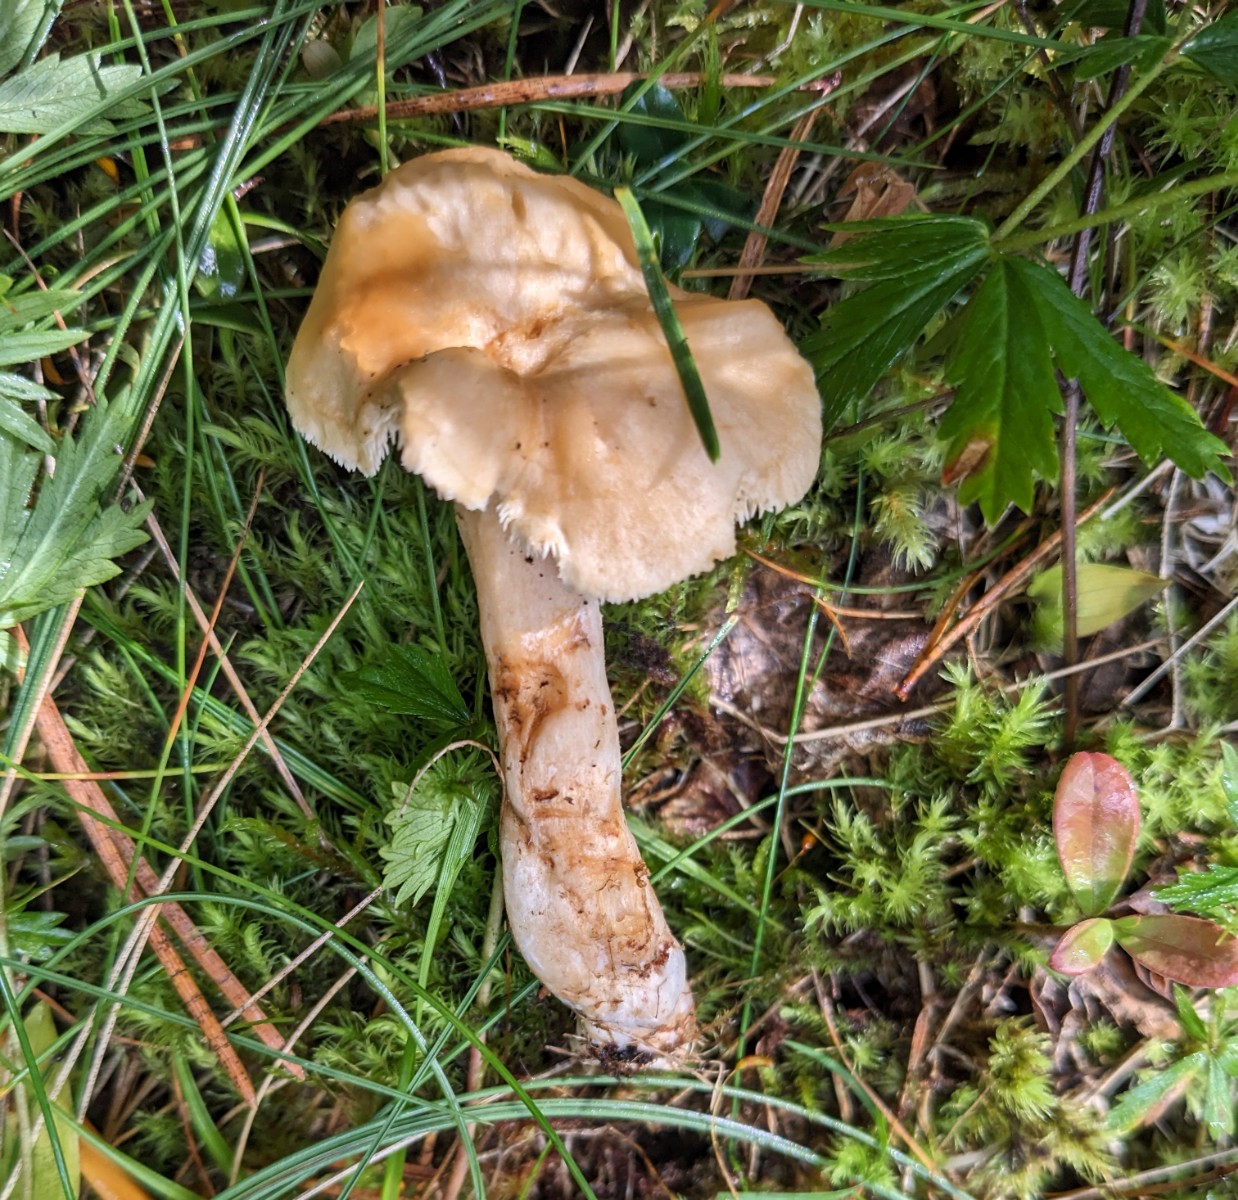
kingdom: Fungi
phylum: Basidiomycota
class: Agaricomycetes
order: Cantharellales
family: Hydnaceae
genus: Hydnum
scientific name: Hydnum
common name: pigsvamp
